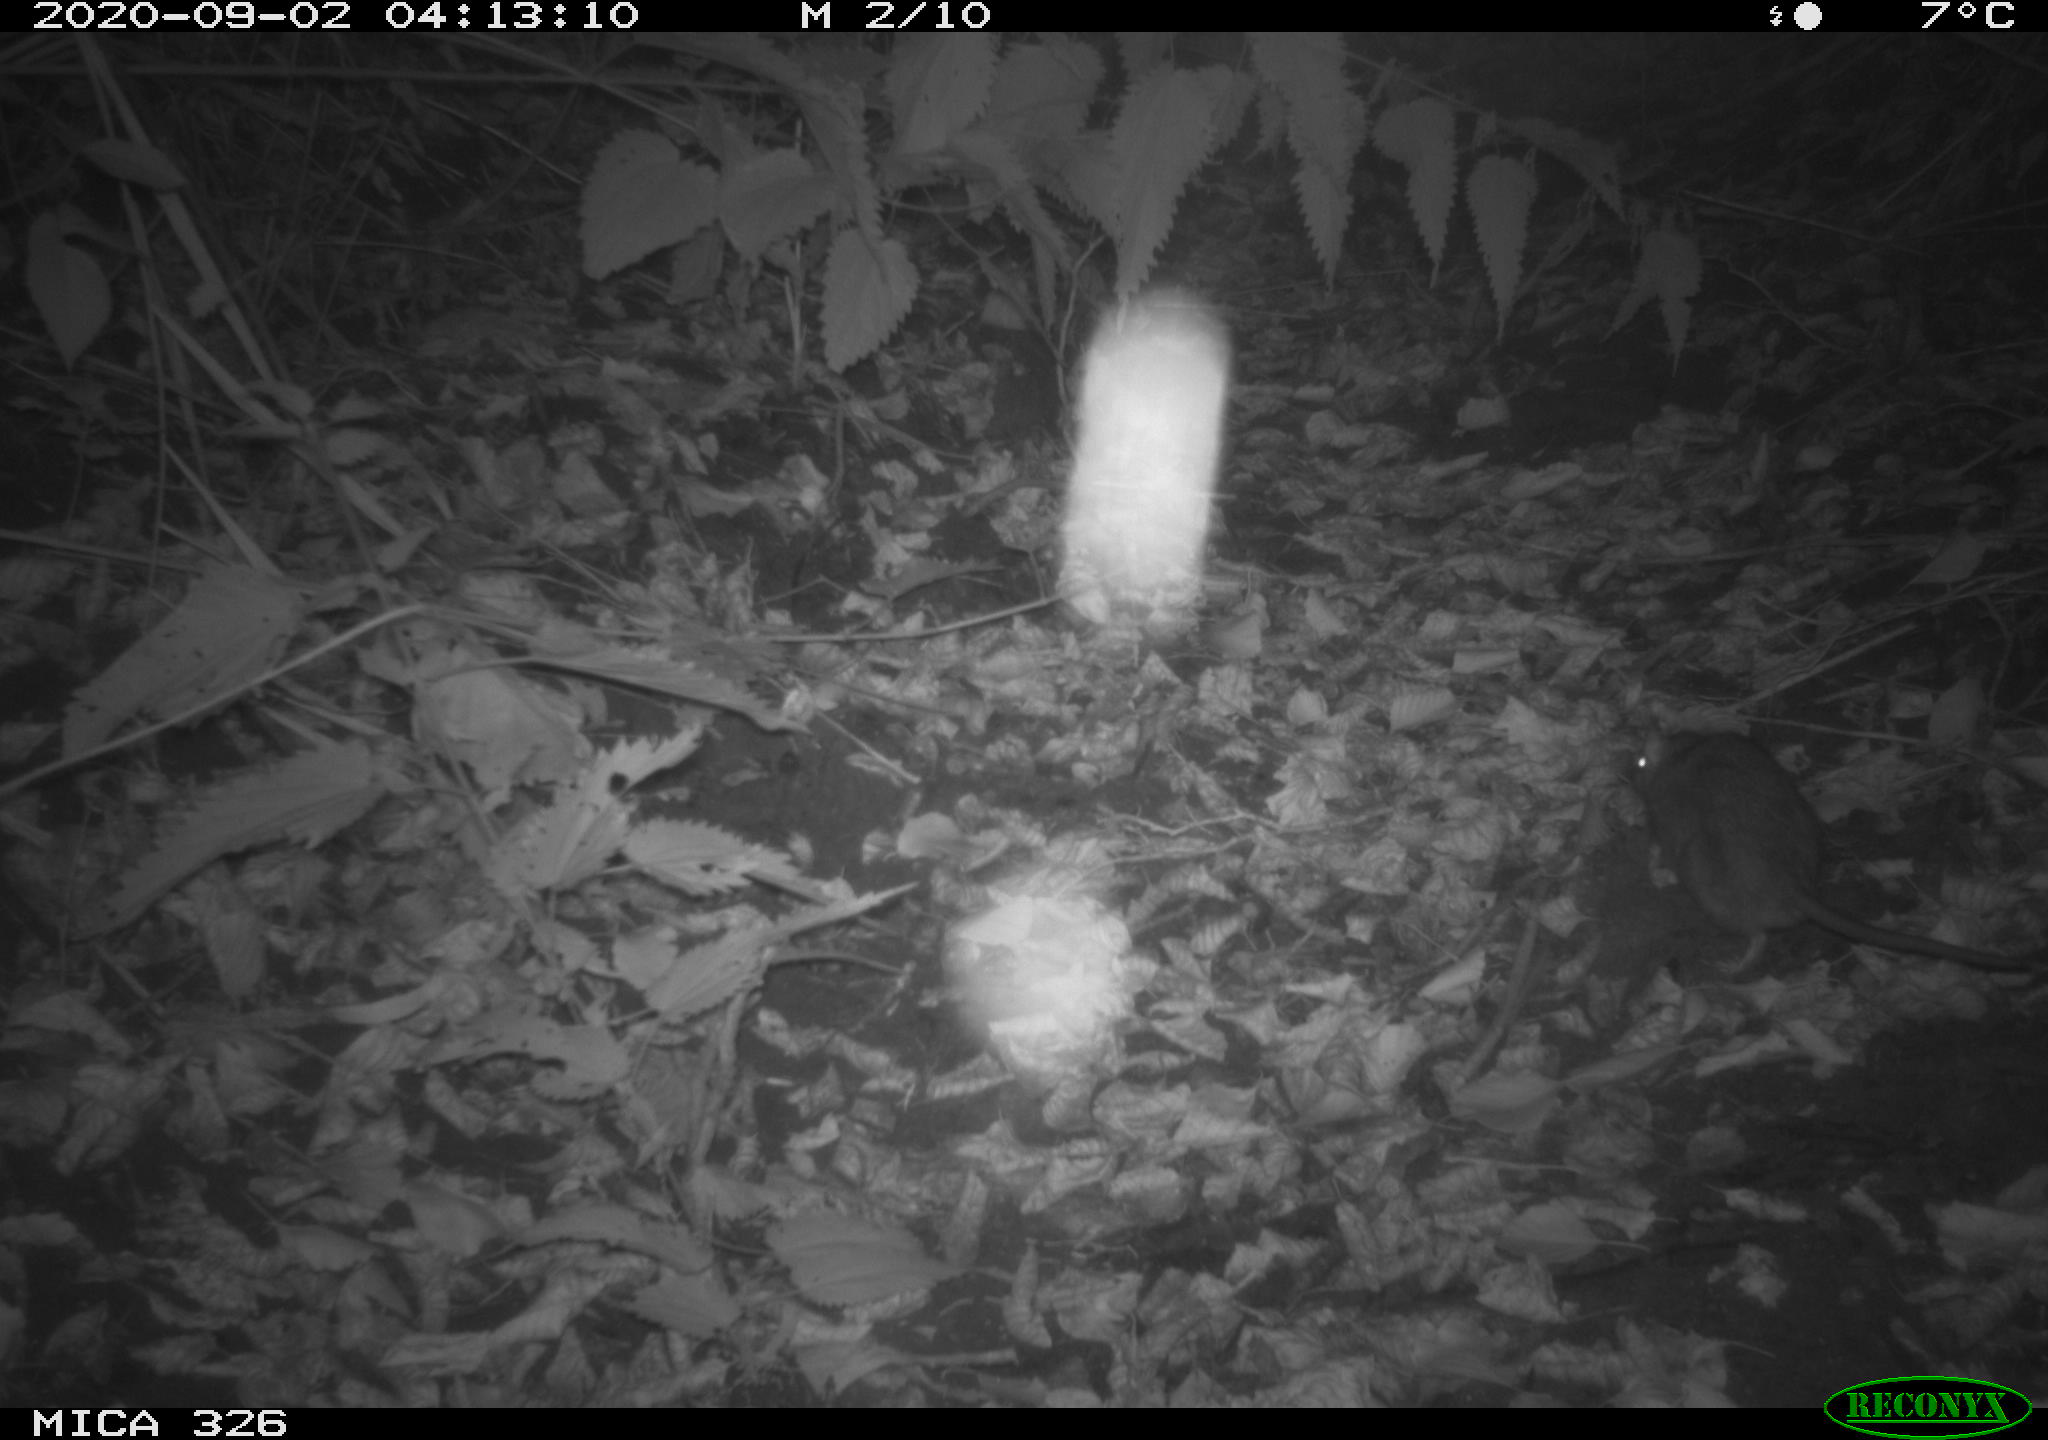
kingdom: Animalia
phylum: Chordata
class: Mammalia
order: Rodentia
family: Muridae
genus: Rattus
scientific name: Rattus norvegicus
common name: Brown rat
